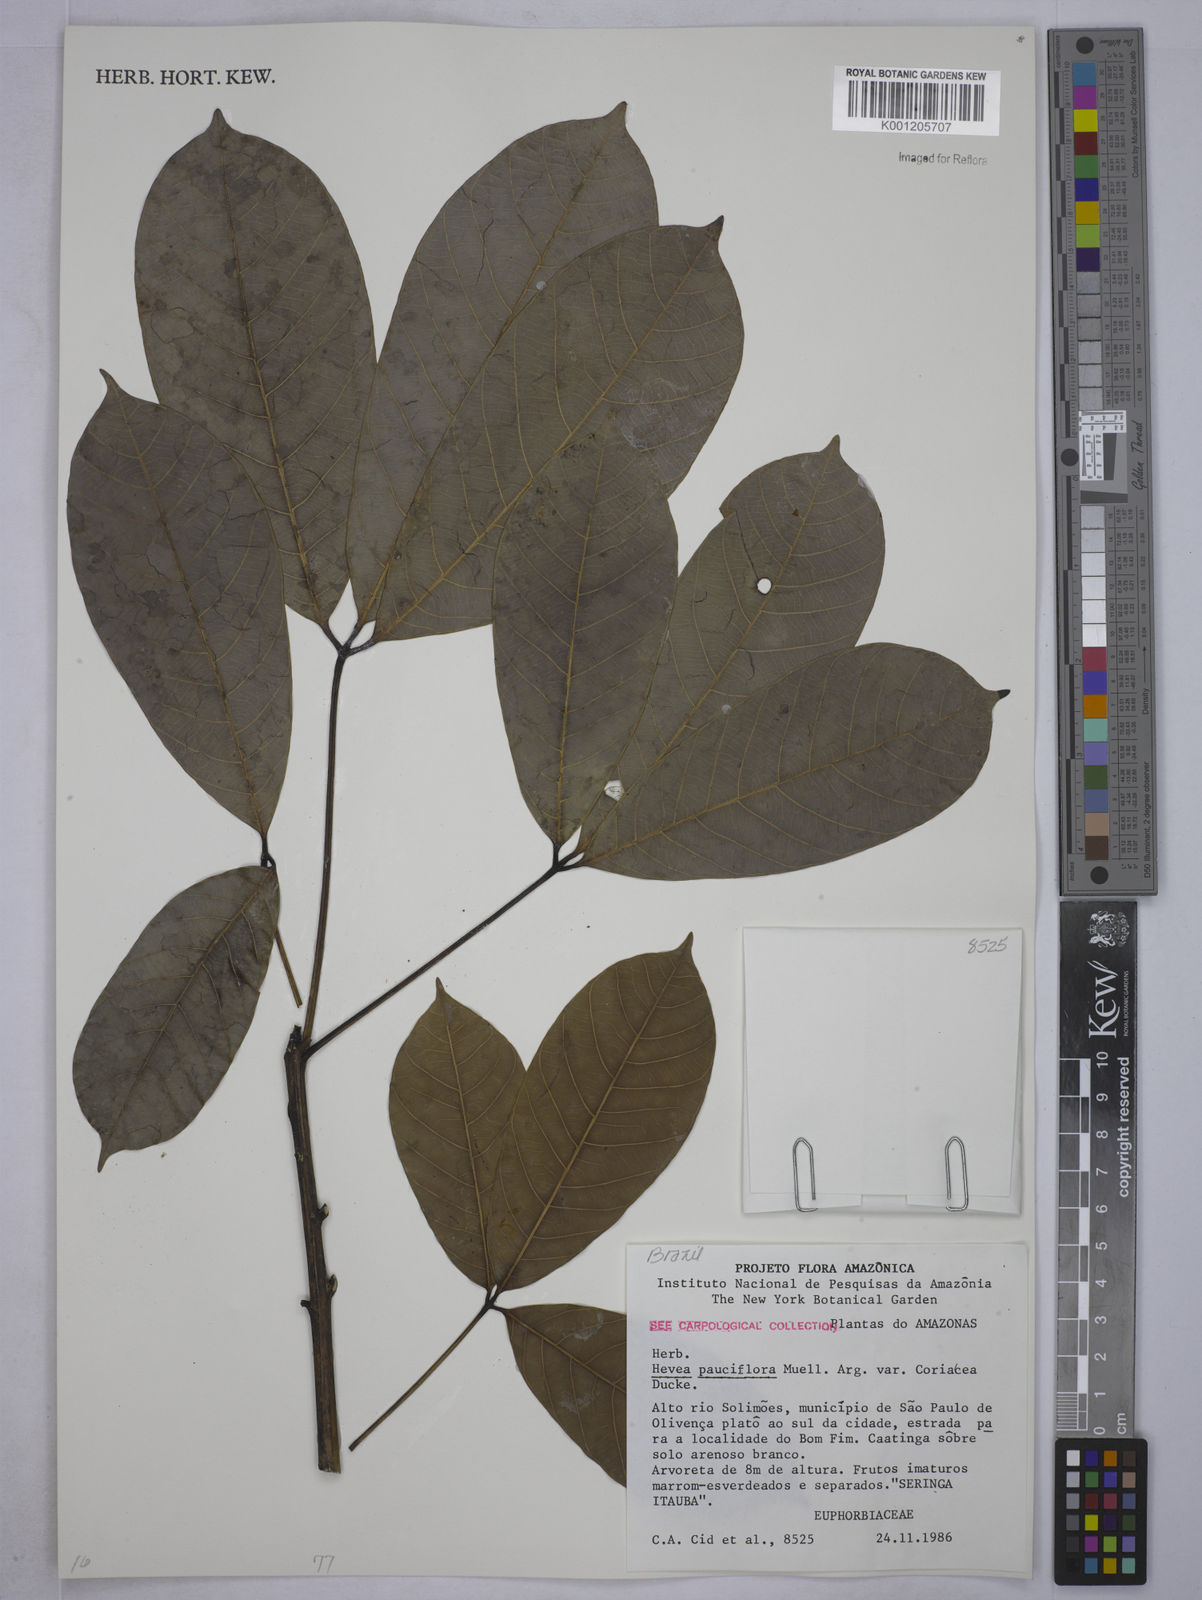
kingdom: Plantae
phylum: Tracheophyta
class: Magnoliopsida
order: Malpighiales
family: Euphorbiaceae
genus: Hevea
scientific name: Hevea pauciflora
